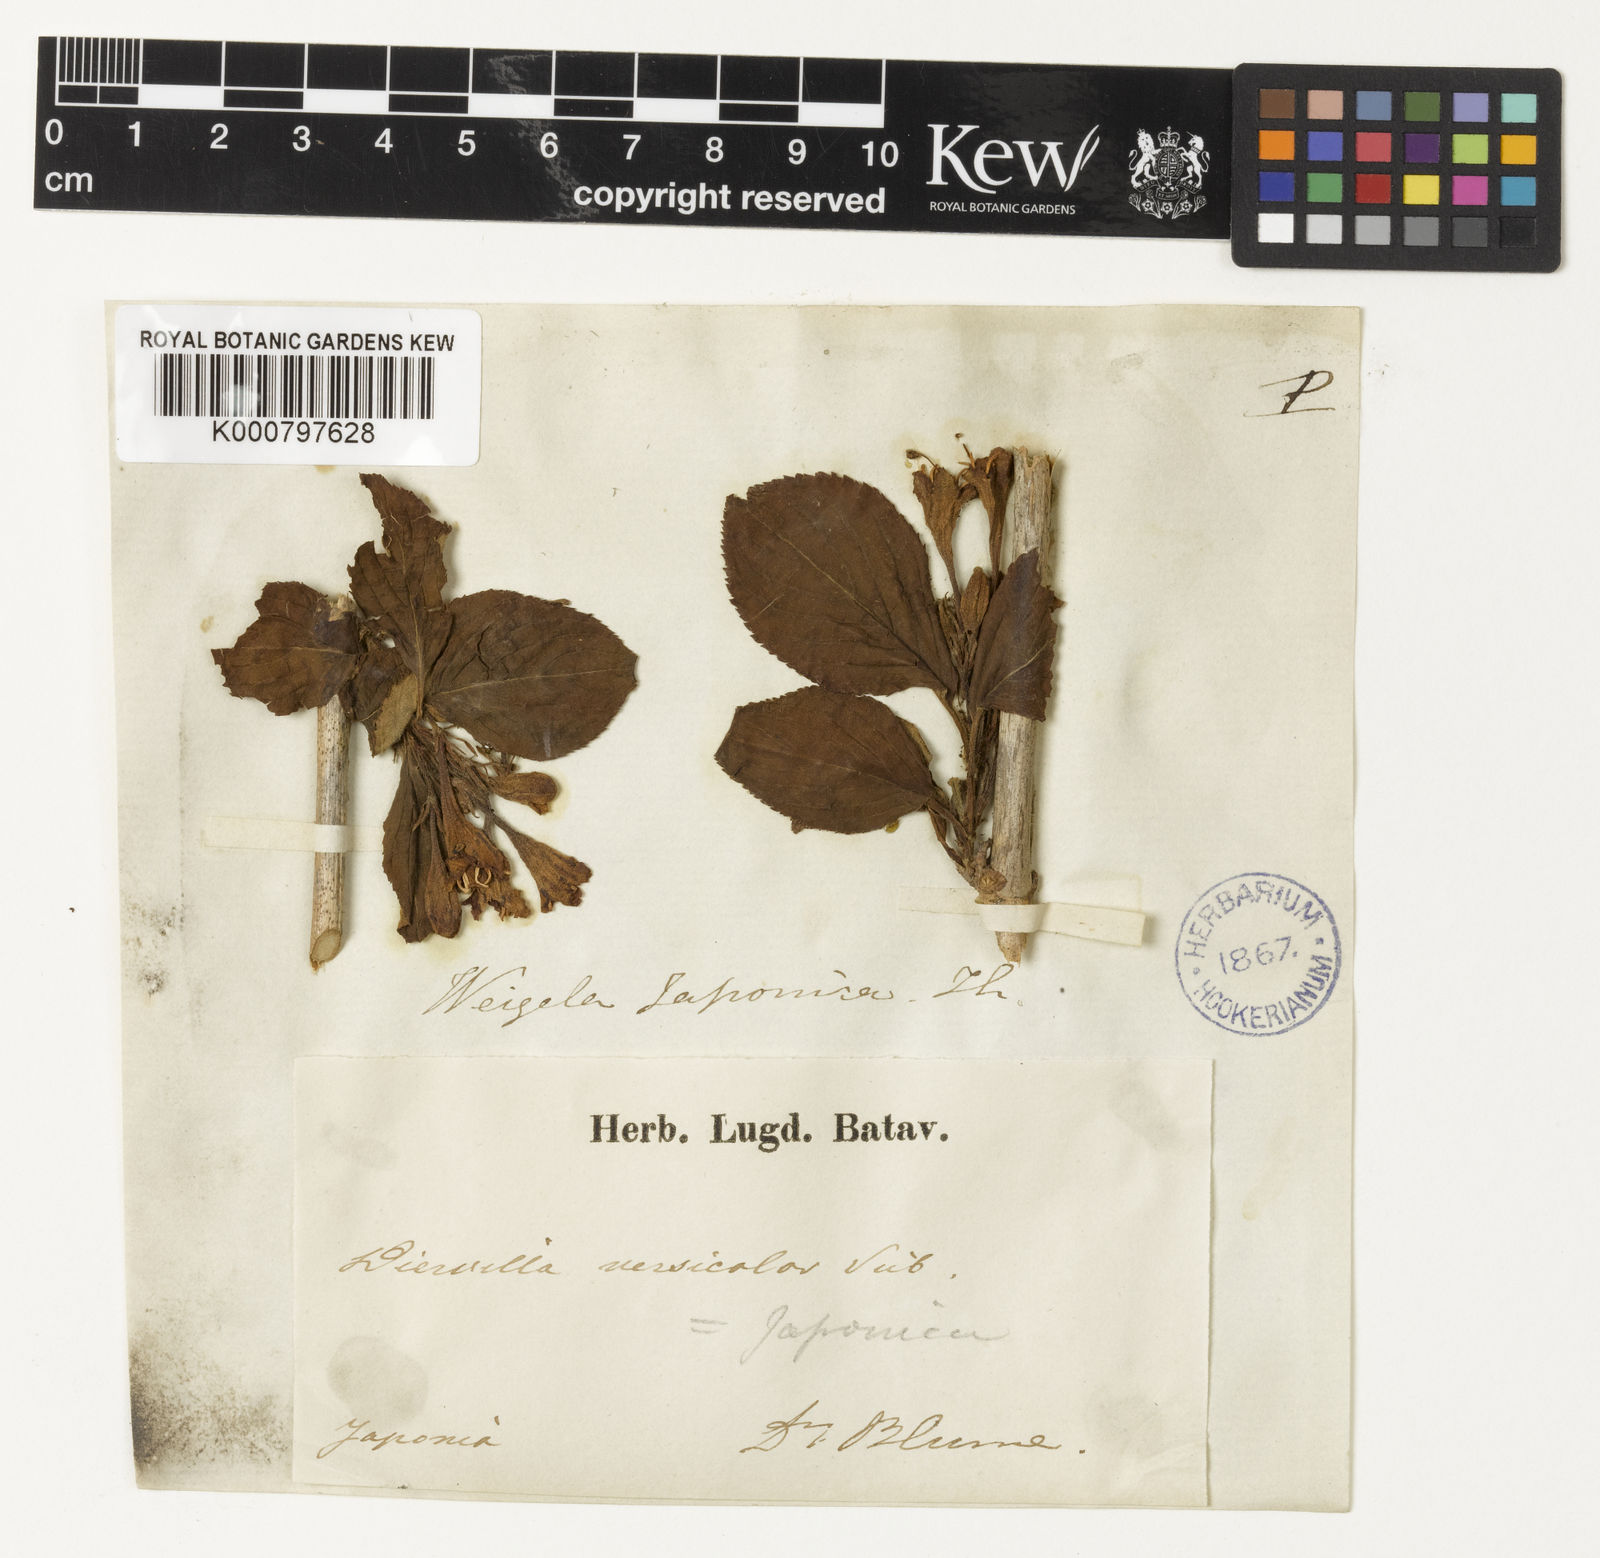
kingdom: Plantae
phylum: Tracheophyta
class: Magnoliopsida
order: Dipsacales
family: Caprifoliaceae
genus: Weigela
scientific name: Weigela japonica
